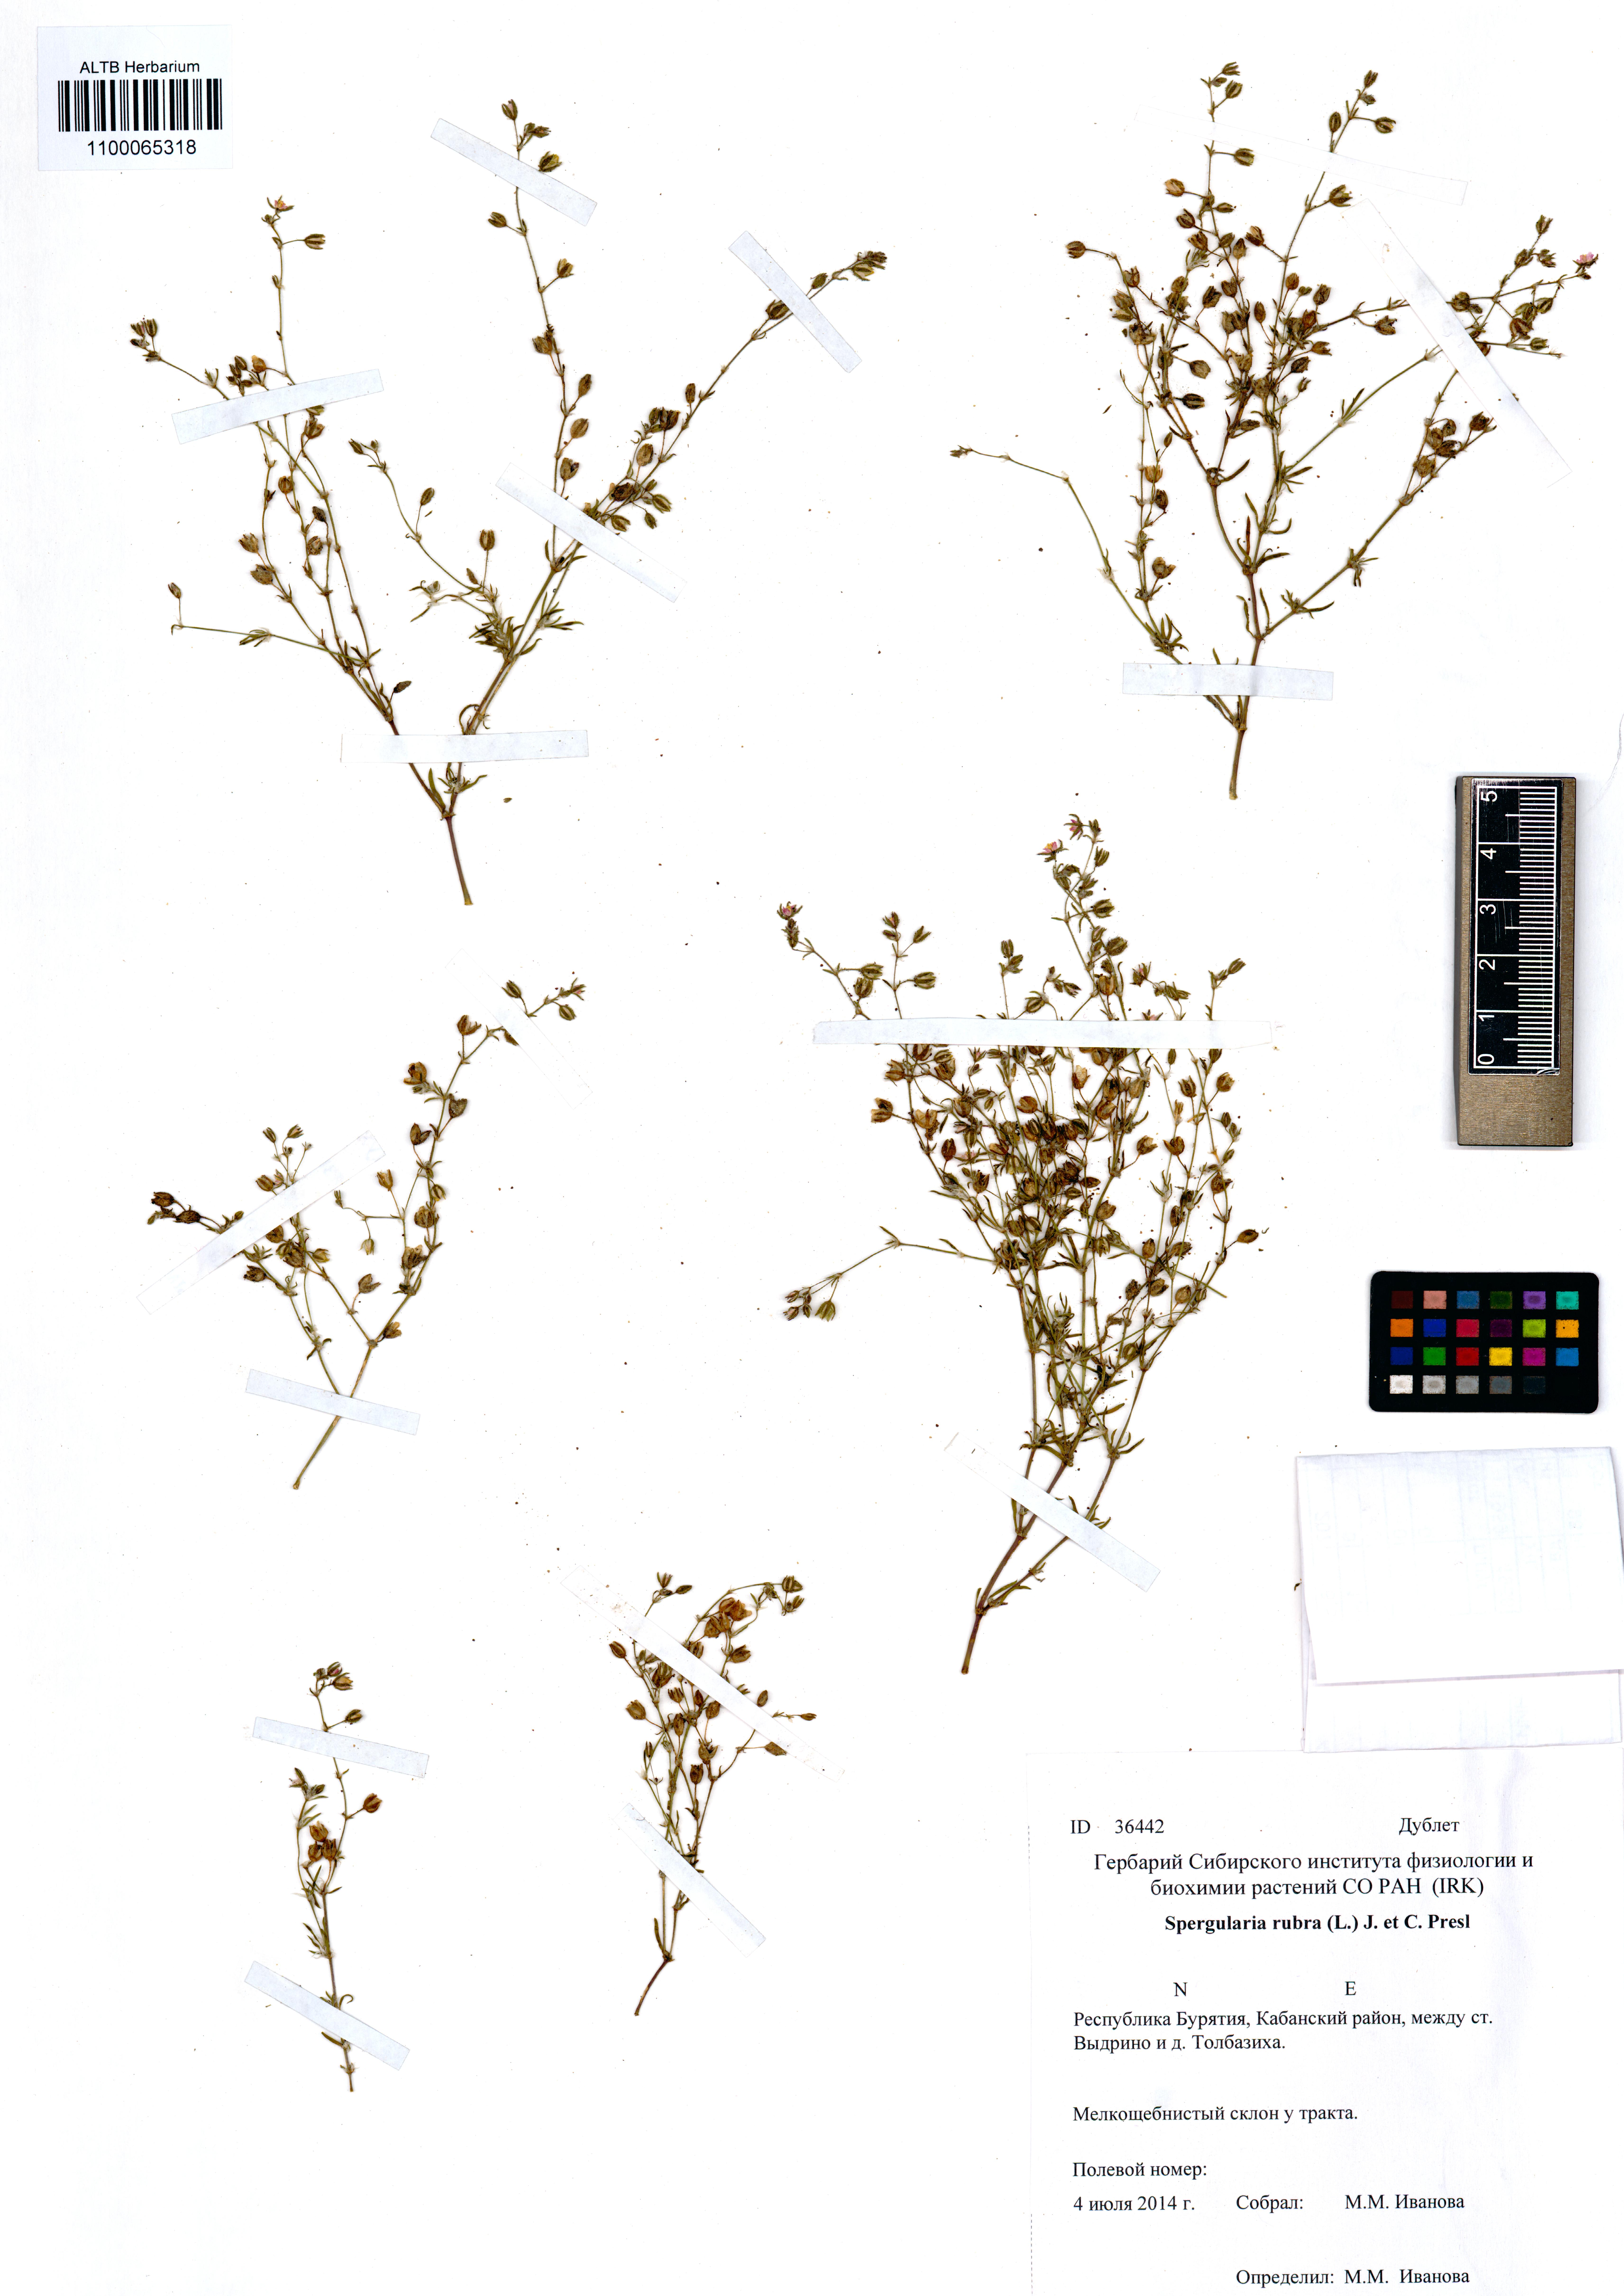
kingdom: Plantae
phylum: Tracheophyta
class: Magnoliopsida
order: Caryophyllales
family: Caryophyllaceae
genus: Spergula
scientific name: Spergula rubra
